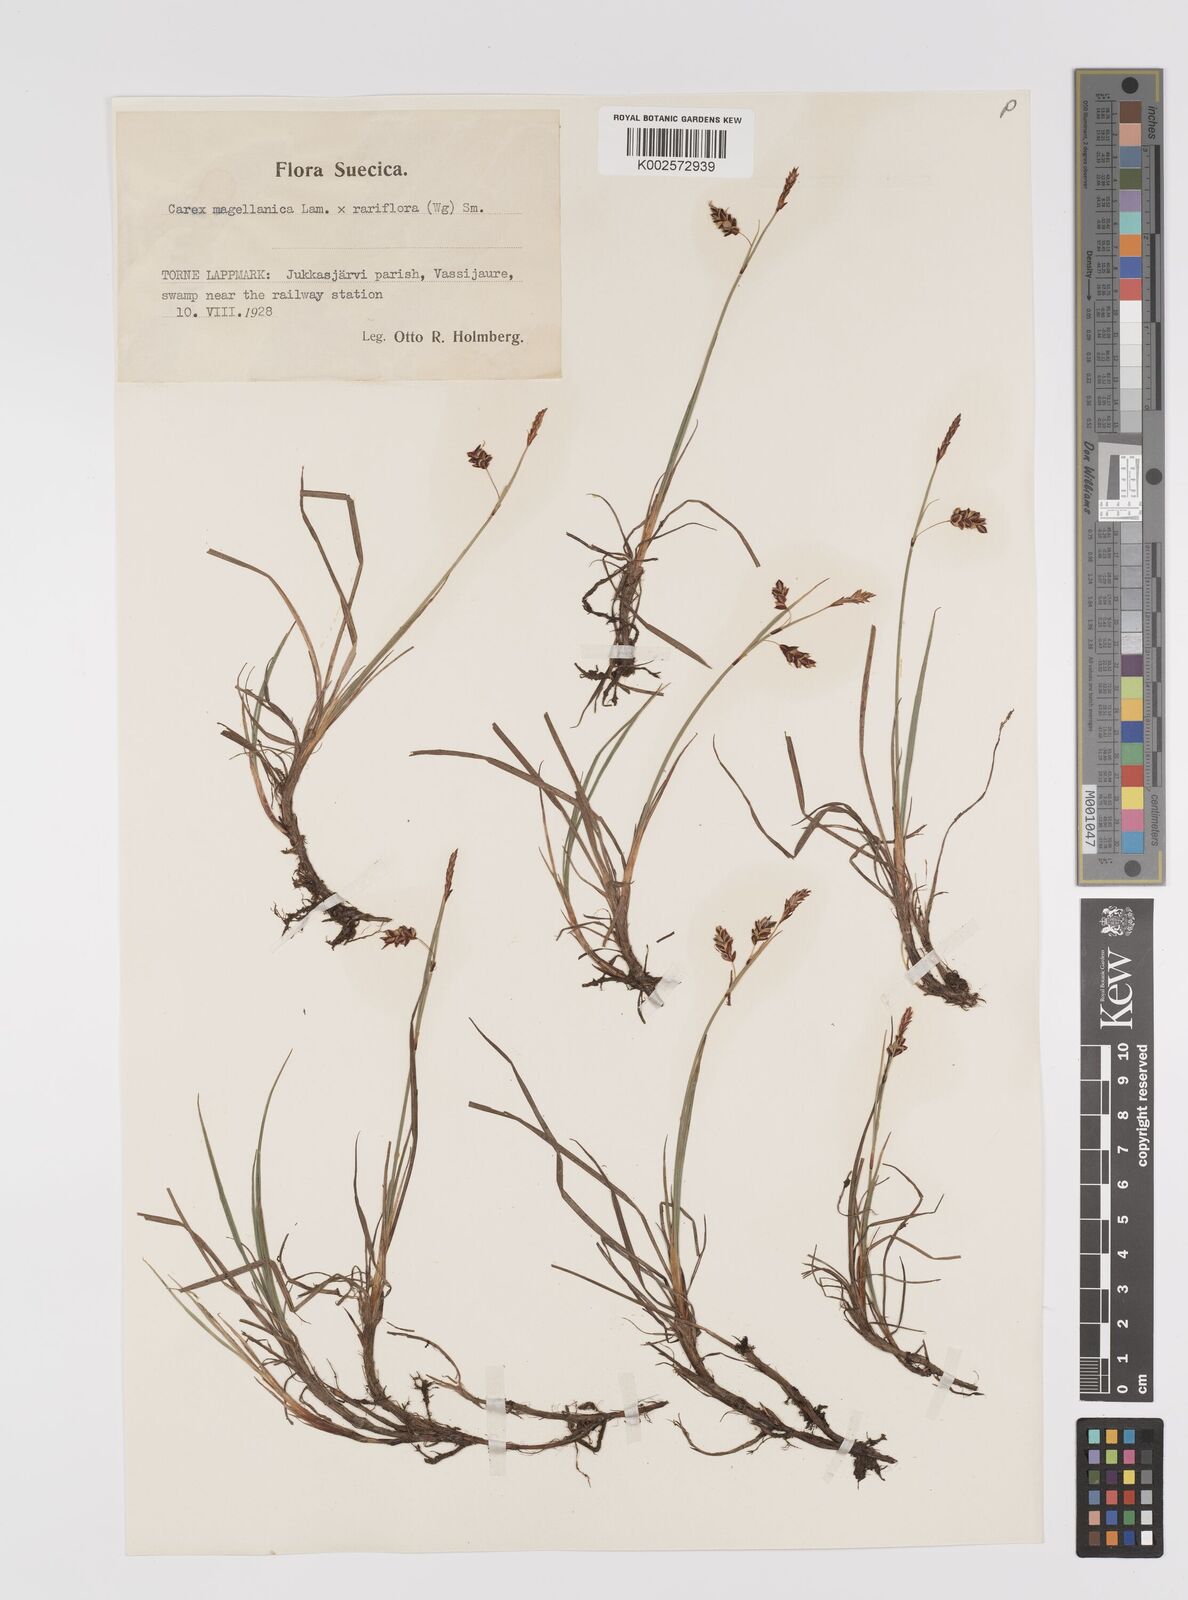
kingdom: Plantae
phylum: Tracheophyta
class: Liliopsida
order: Poales
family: Cyperaceae
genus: Carex
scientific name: Carex rariflora
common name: Loose-flowered alpine sedge
